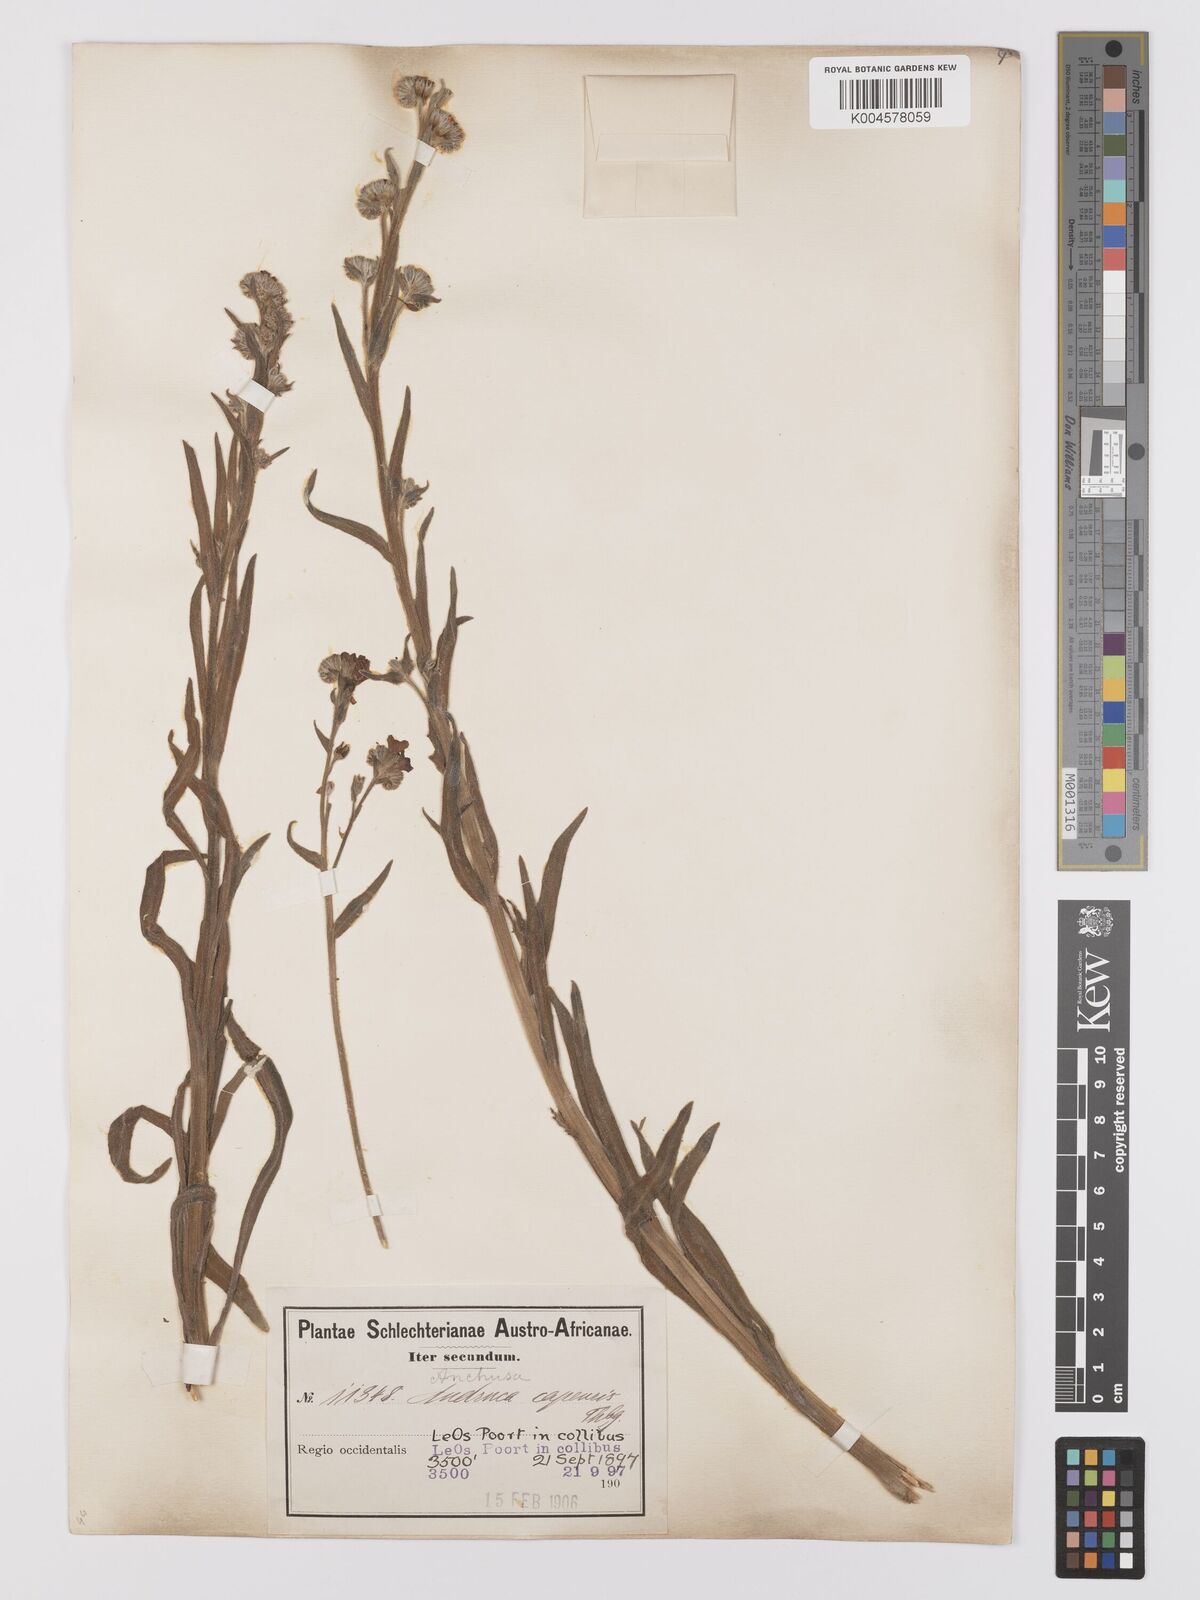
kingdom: Plantae
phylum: Tracheophyta
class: Magnoliopsida
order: Boraginales
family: Boraginaceae
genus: Anchusa
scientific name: Anchusa capensis
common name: Cape bugloss
